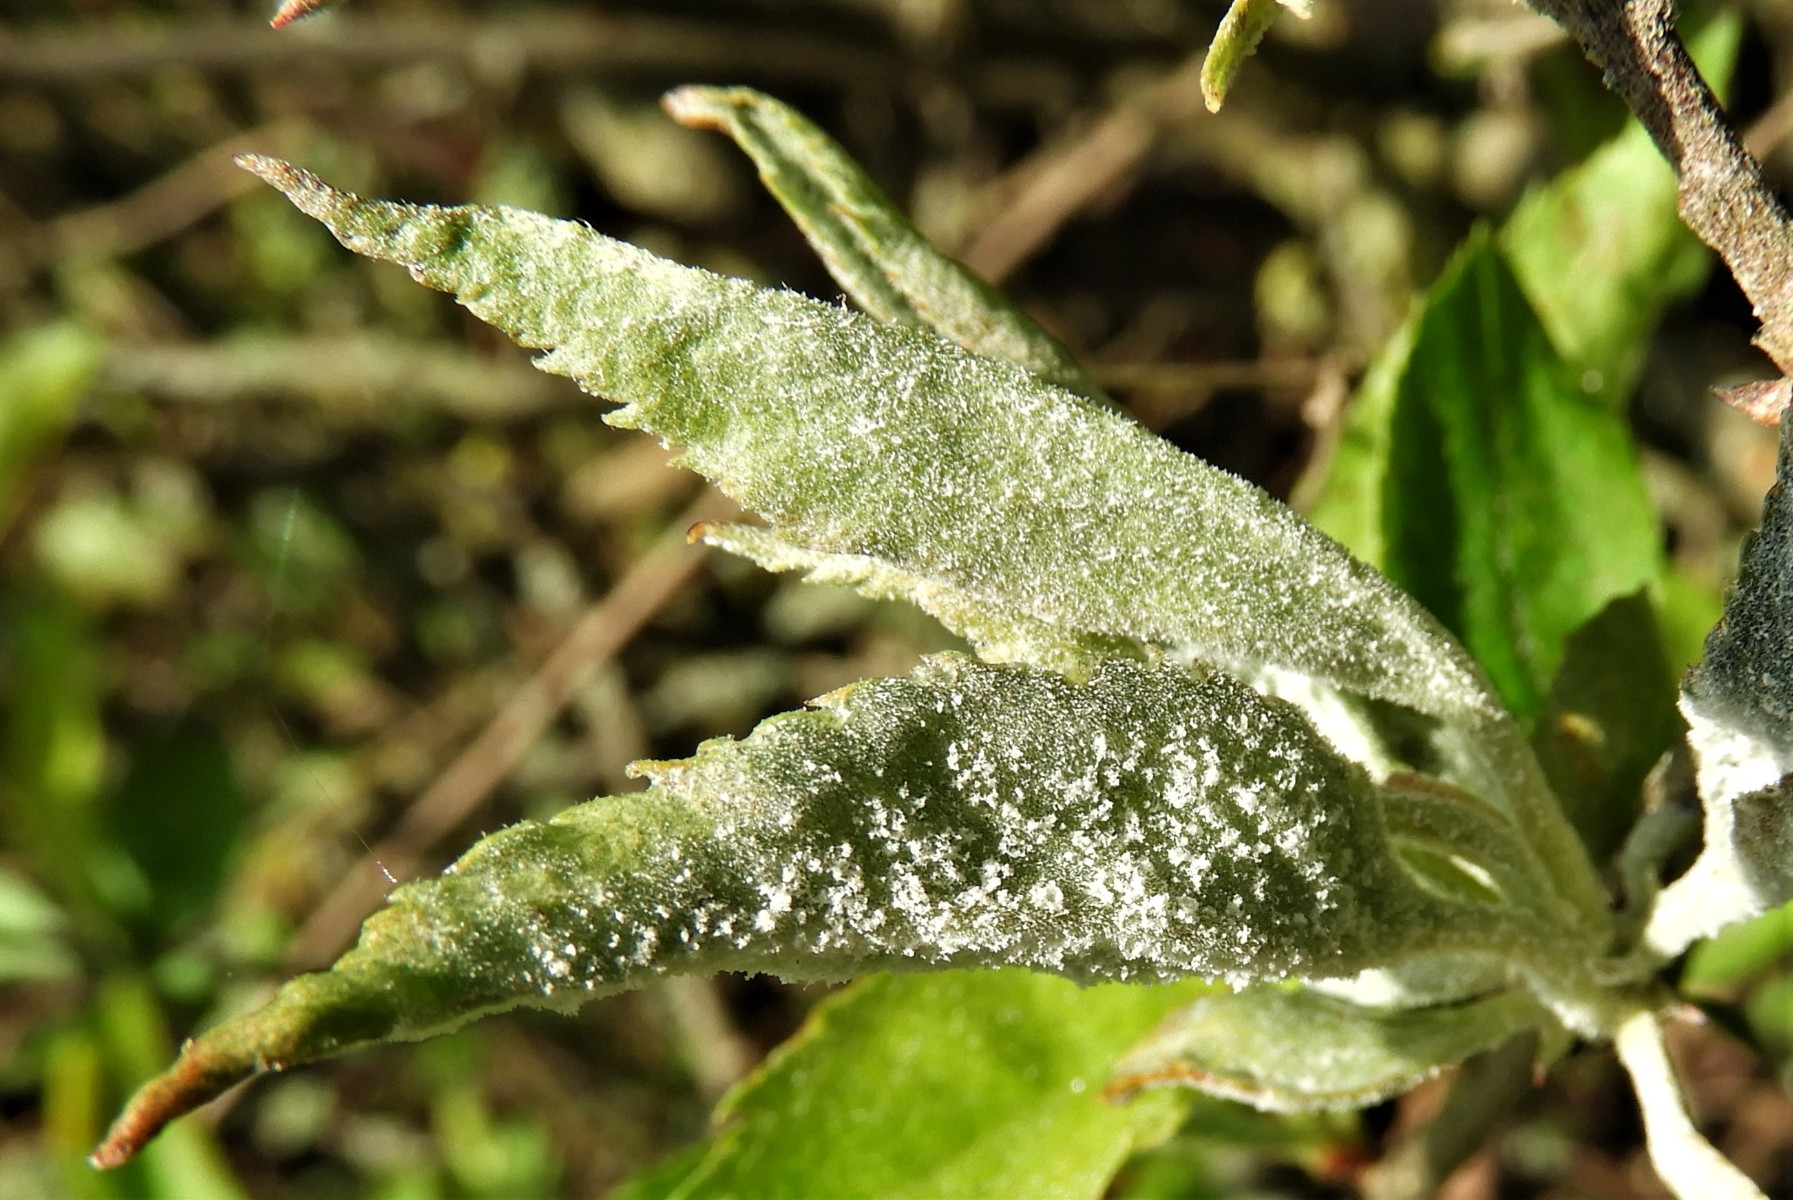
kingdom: Fungi
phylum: Ascomycota
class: Leotiomycetes
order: Helotiales
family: Erysiphaceae
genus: Podosphaera
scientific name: Podosphaera leucotricha
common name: æble-meldug
